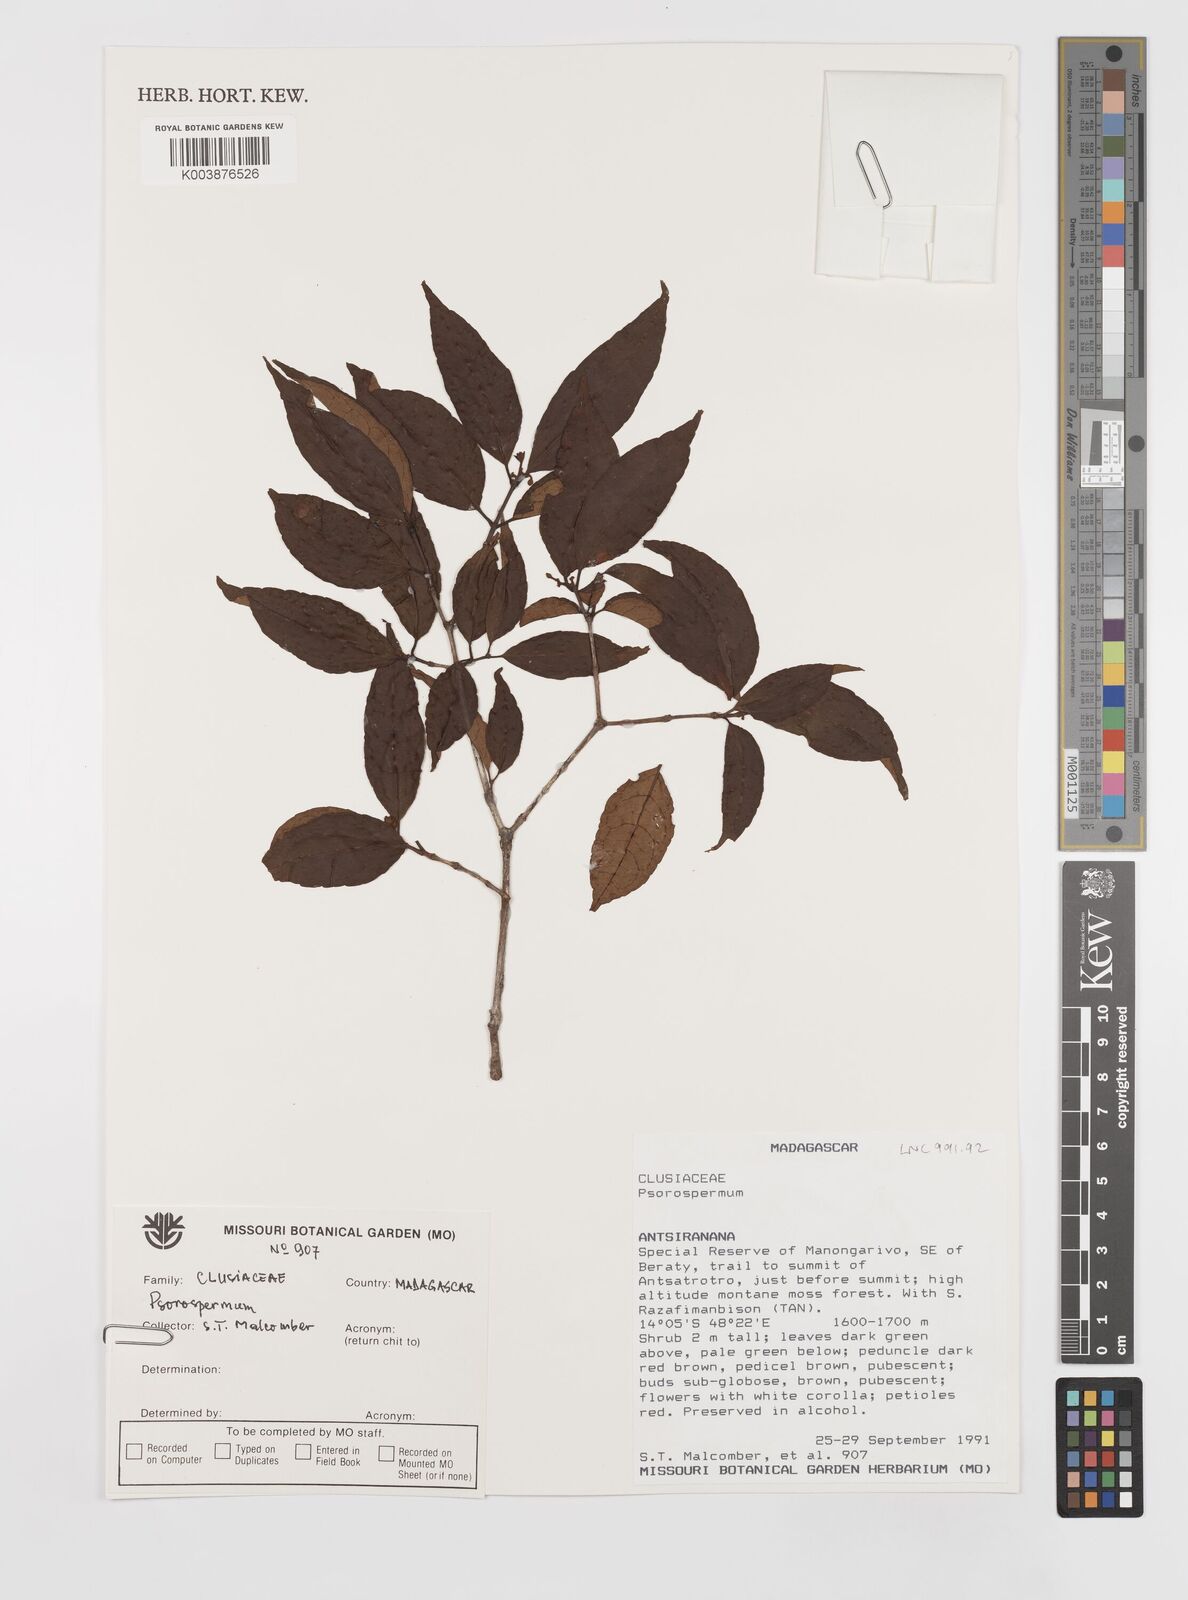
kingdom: Plantae
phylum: Tracheophyta
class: Magnoliopsida
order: Malpighiales
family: Hypericaceae
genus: Psorospermum
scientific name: Psorospermum
